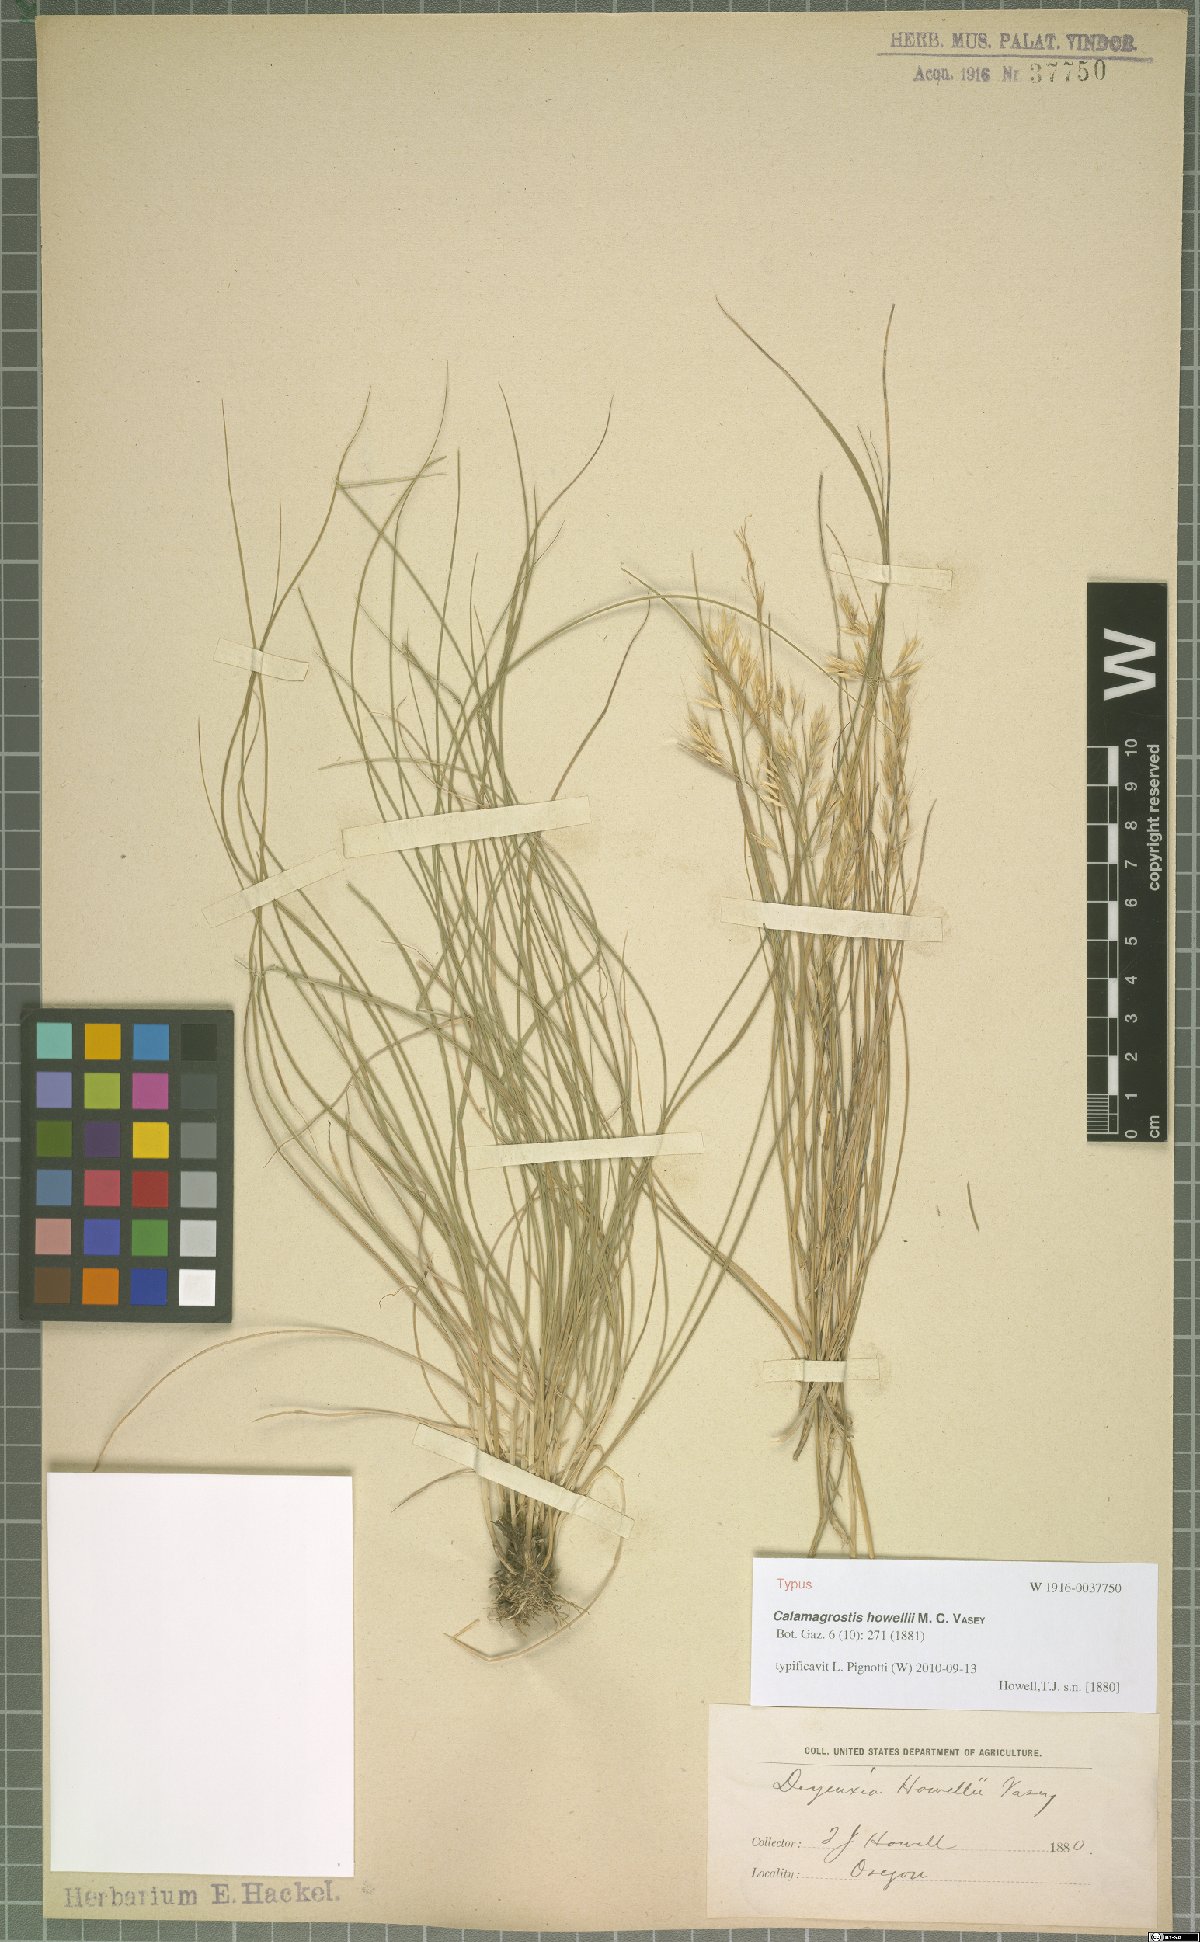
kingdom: Plantae
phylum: Tracheophyta
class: Liliopsida
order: Poales
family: Poaceae
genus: Calamagrostis
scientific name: Calamagrostis howellii
